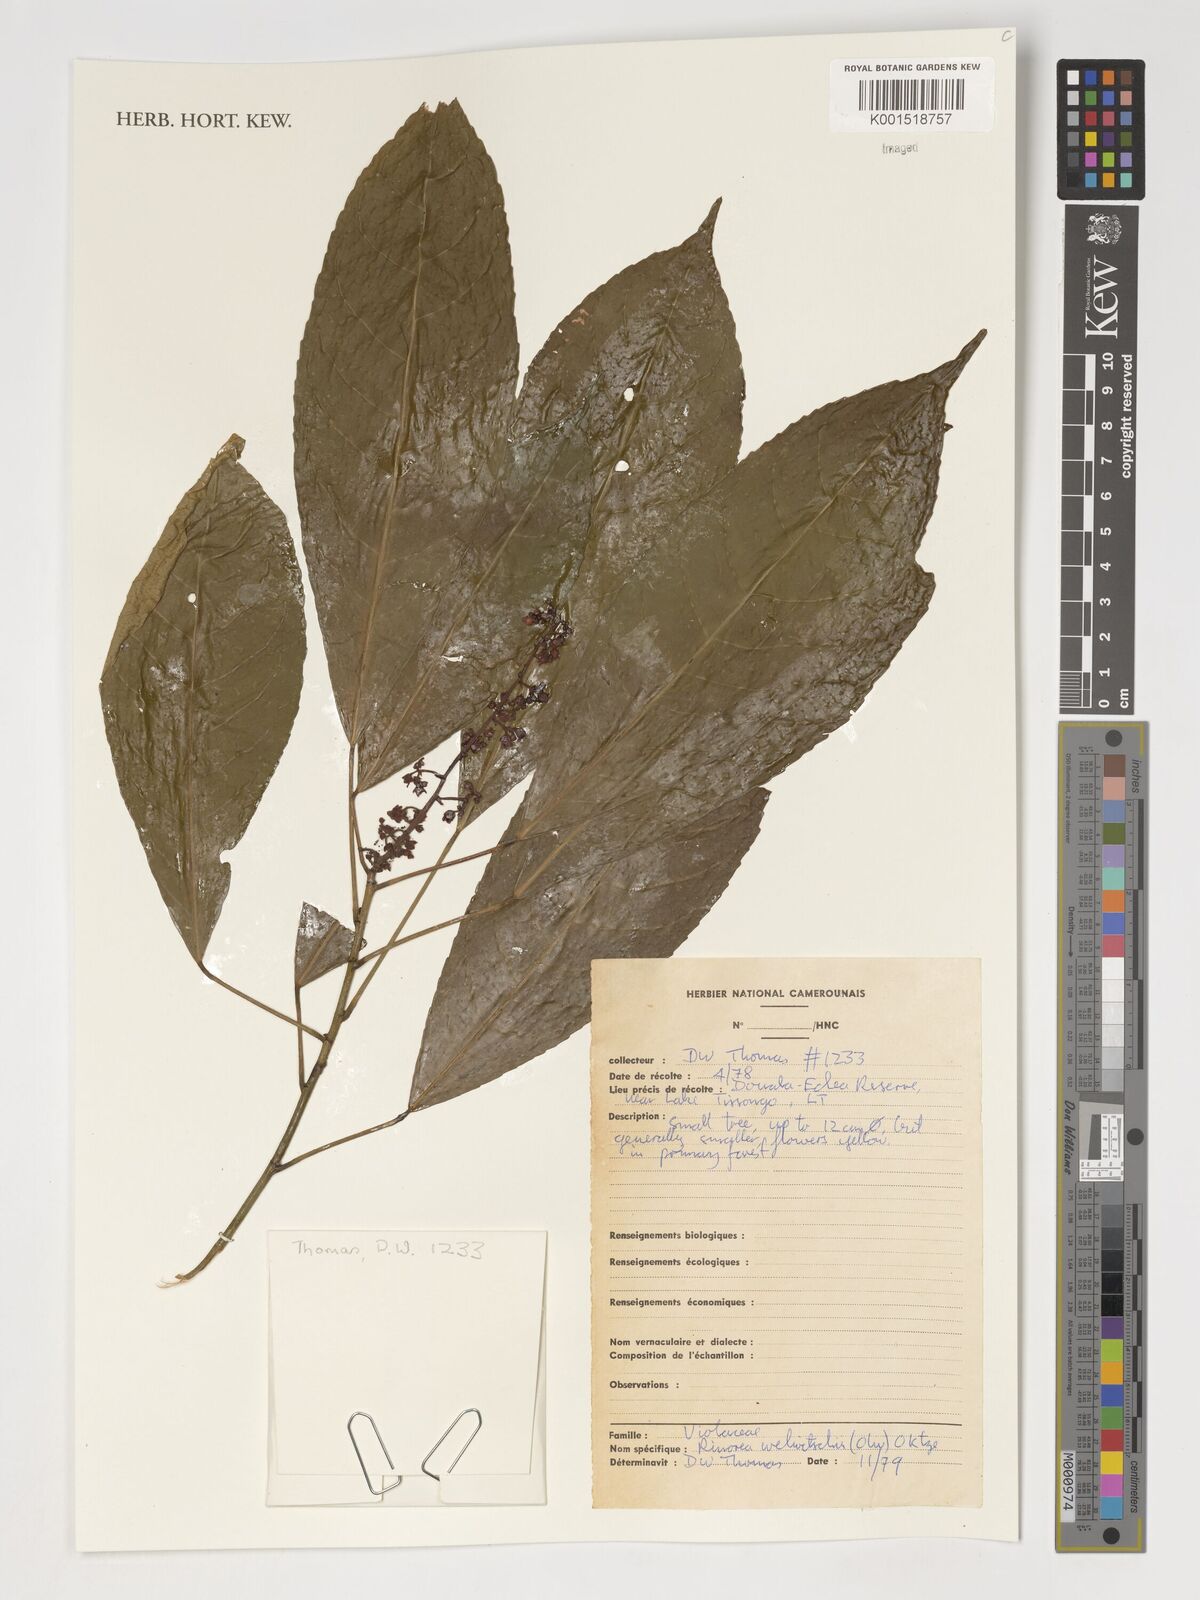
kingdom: Plantae
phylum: Tracheophyta
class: Magnoliopsida
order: Malpighiales
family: Violaceae
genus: Rinorea
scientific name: Rinorea welwitschii
